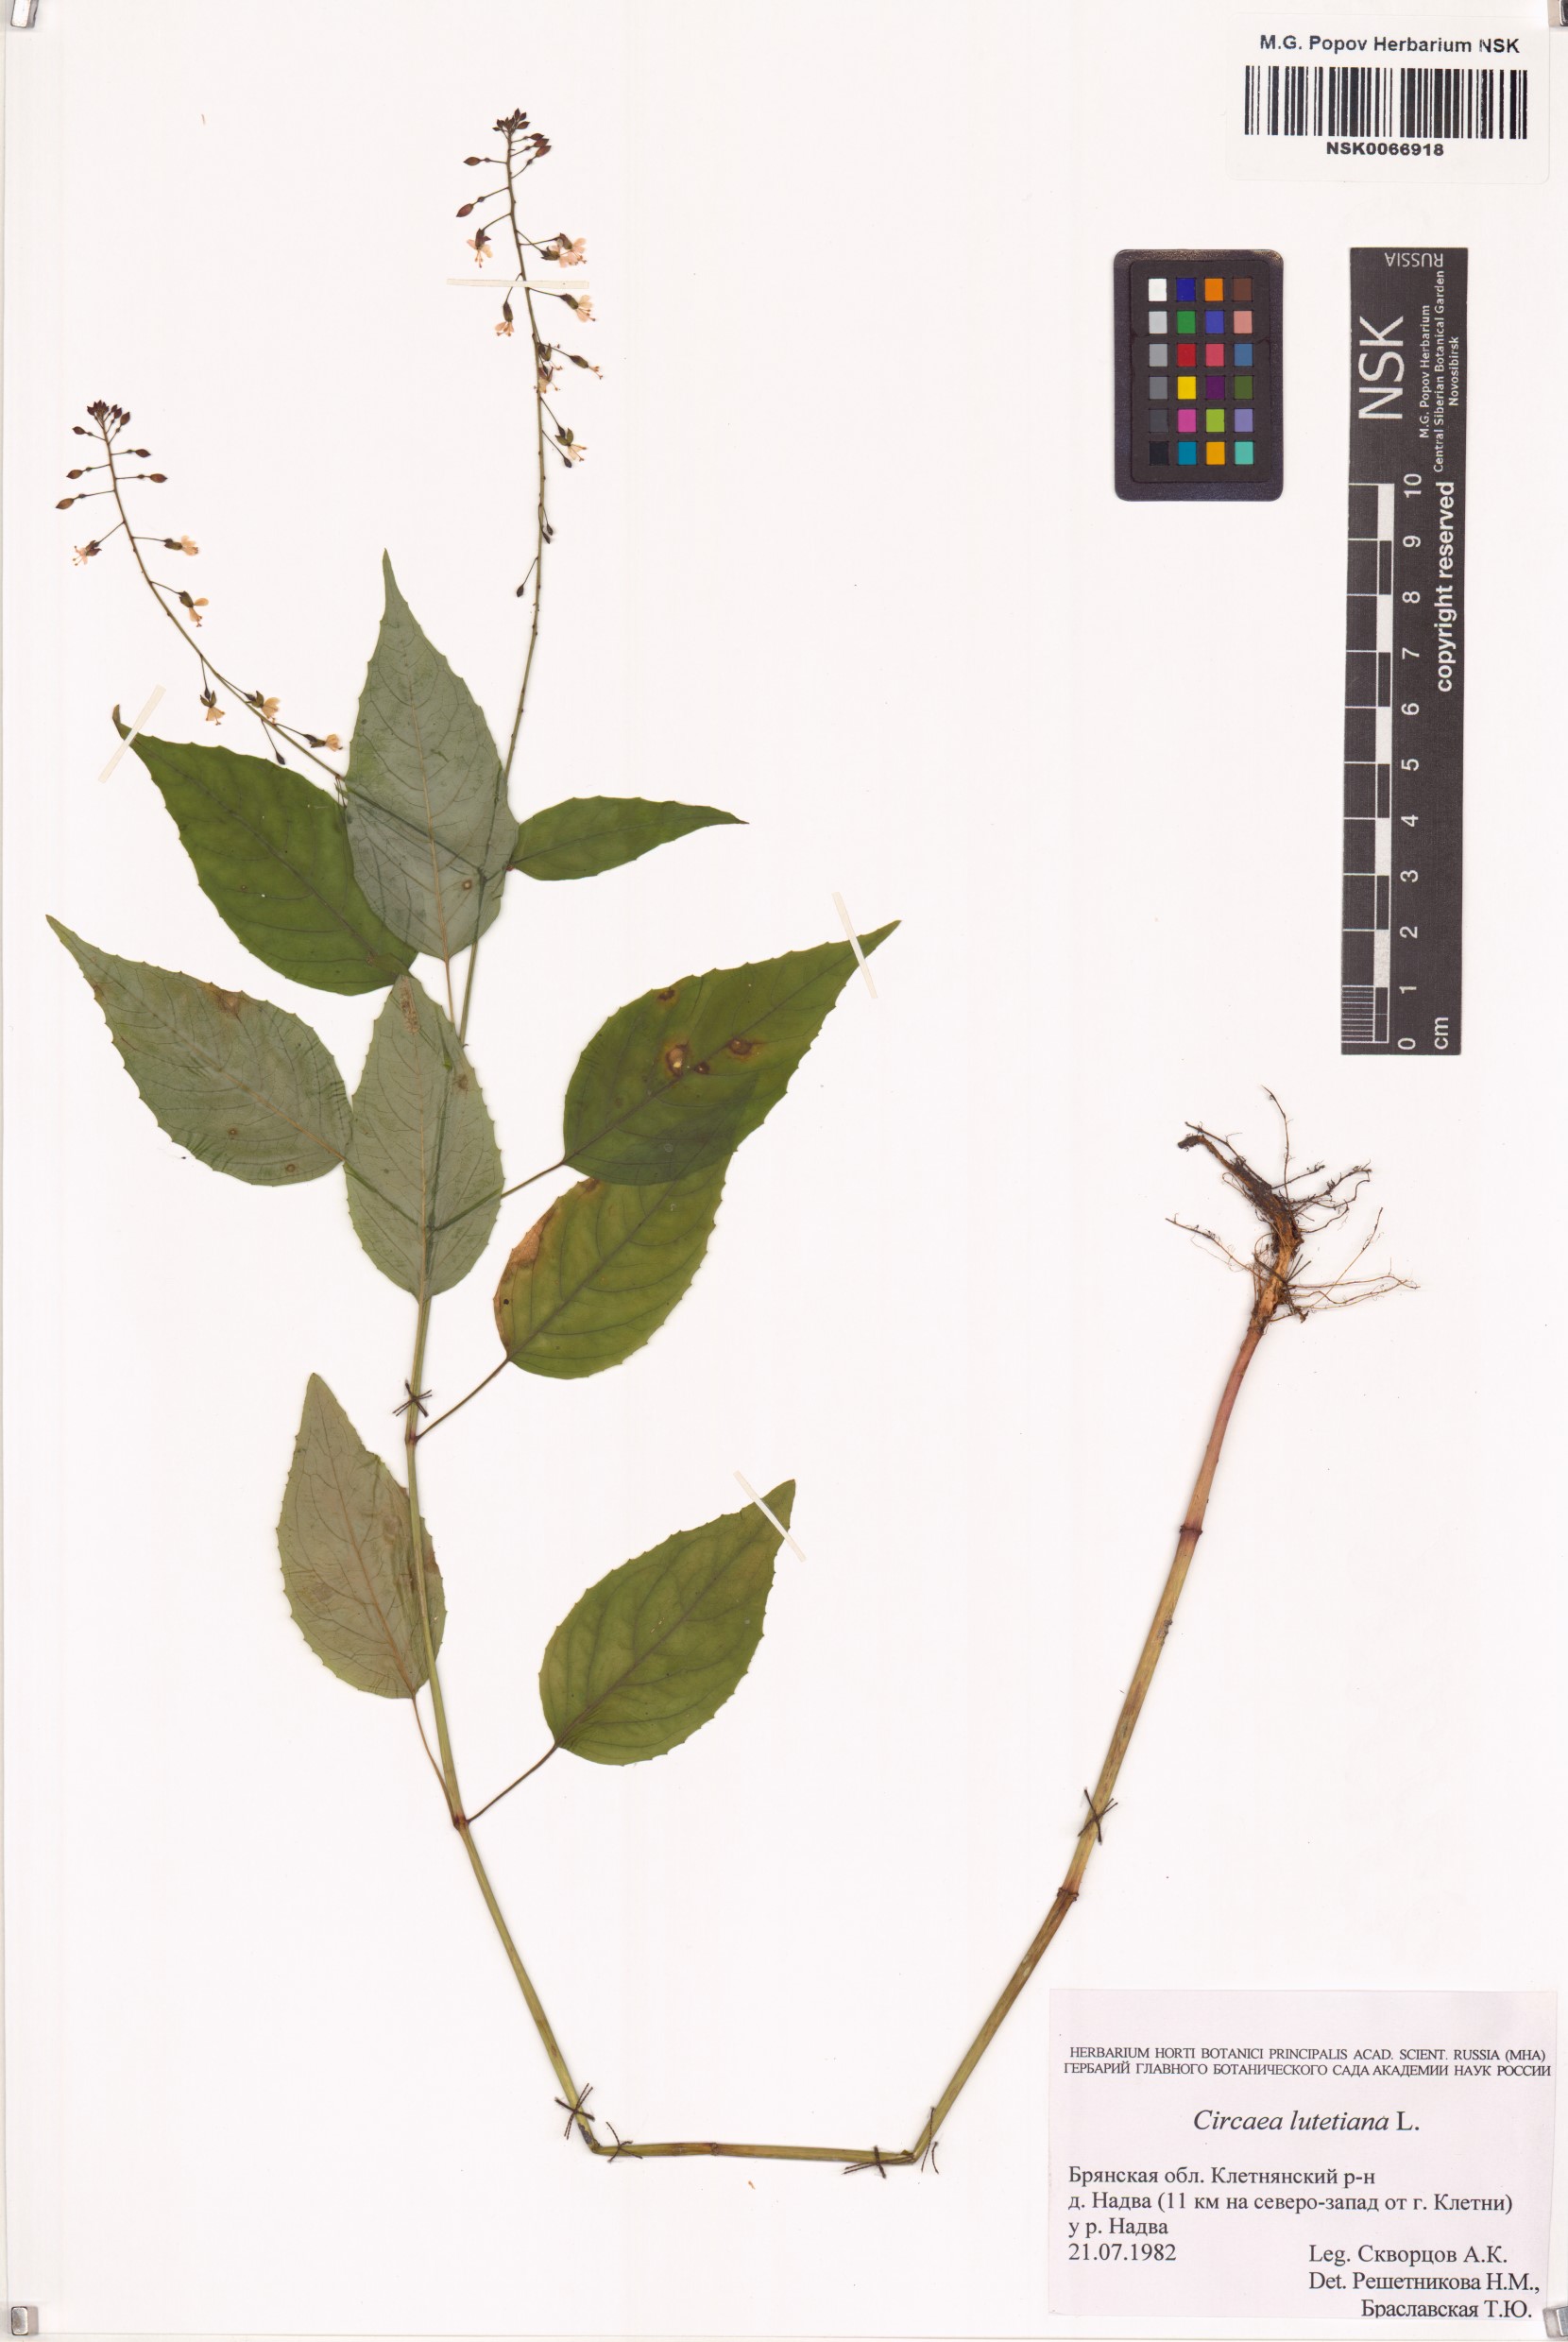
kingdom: Plantae
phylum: Tracheophyta
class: Magnoliopsida
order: Myrtales
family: Onagraceae
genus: Circaea
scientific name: Circaea lutetiana
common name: Enchanter's-nightshade
